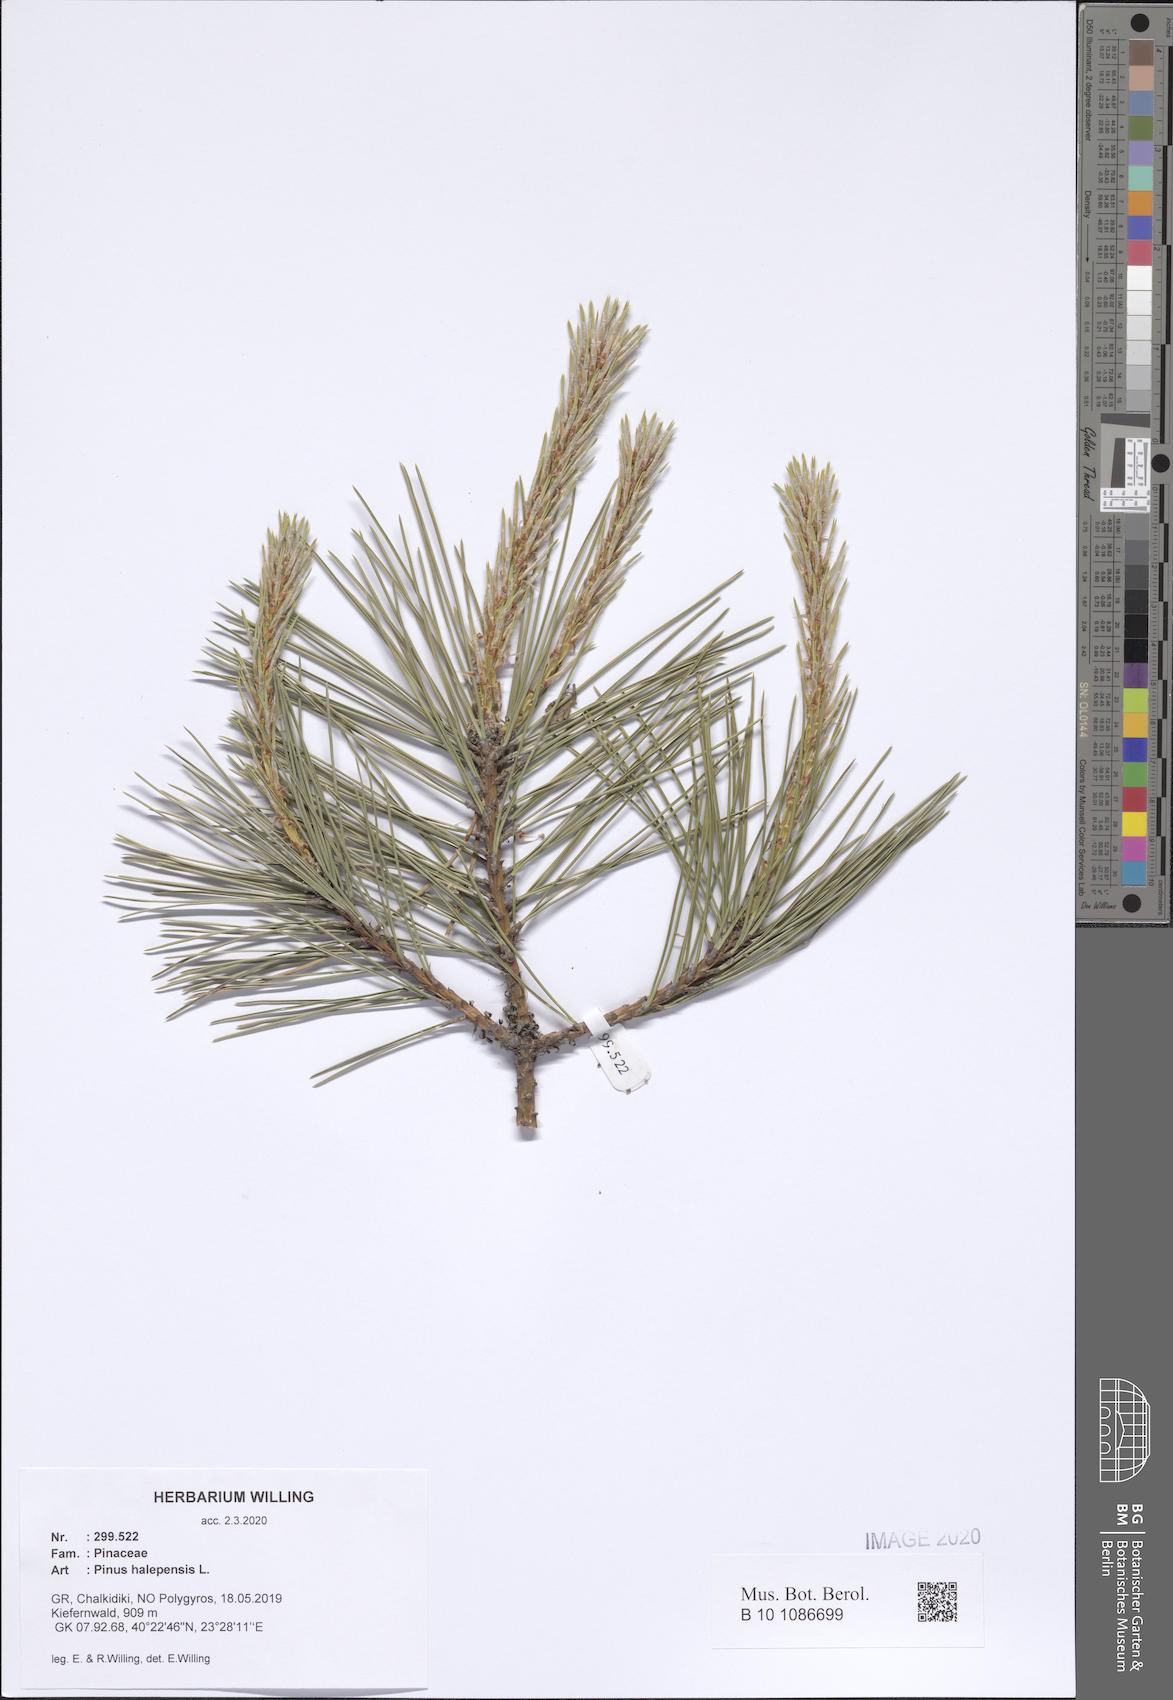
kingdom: Plantae
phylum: Tracheophyta
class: Pinopsida
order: Pinales
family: Pinaceae
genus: Pinus
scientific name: Pinus halepensis
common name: Aleppo pine
